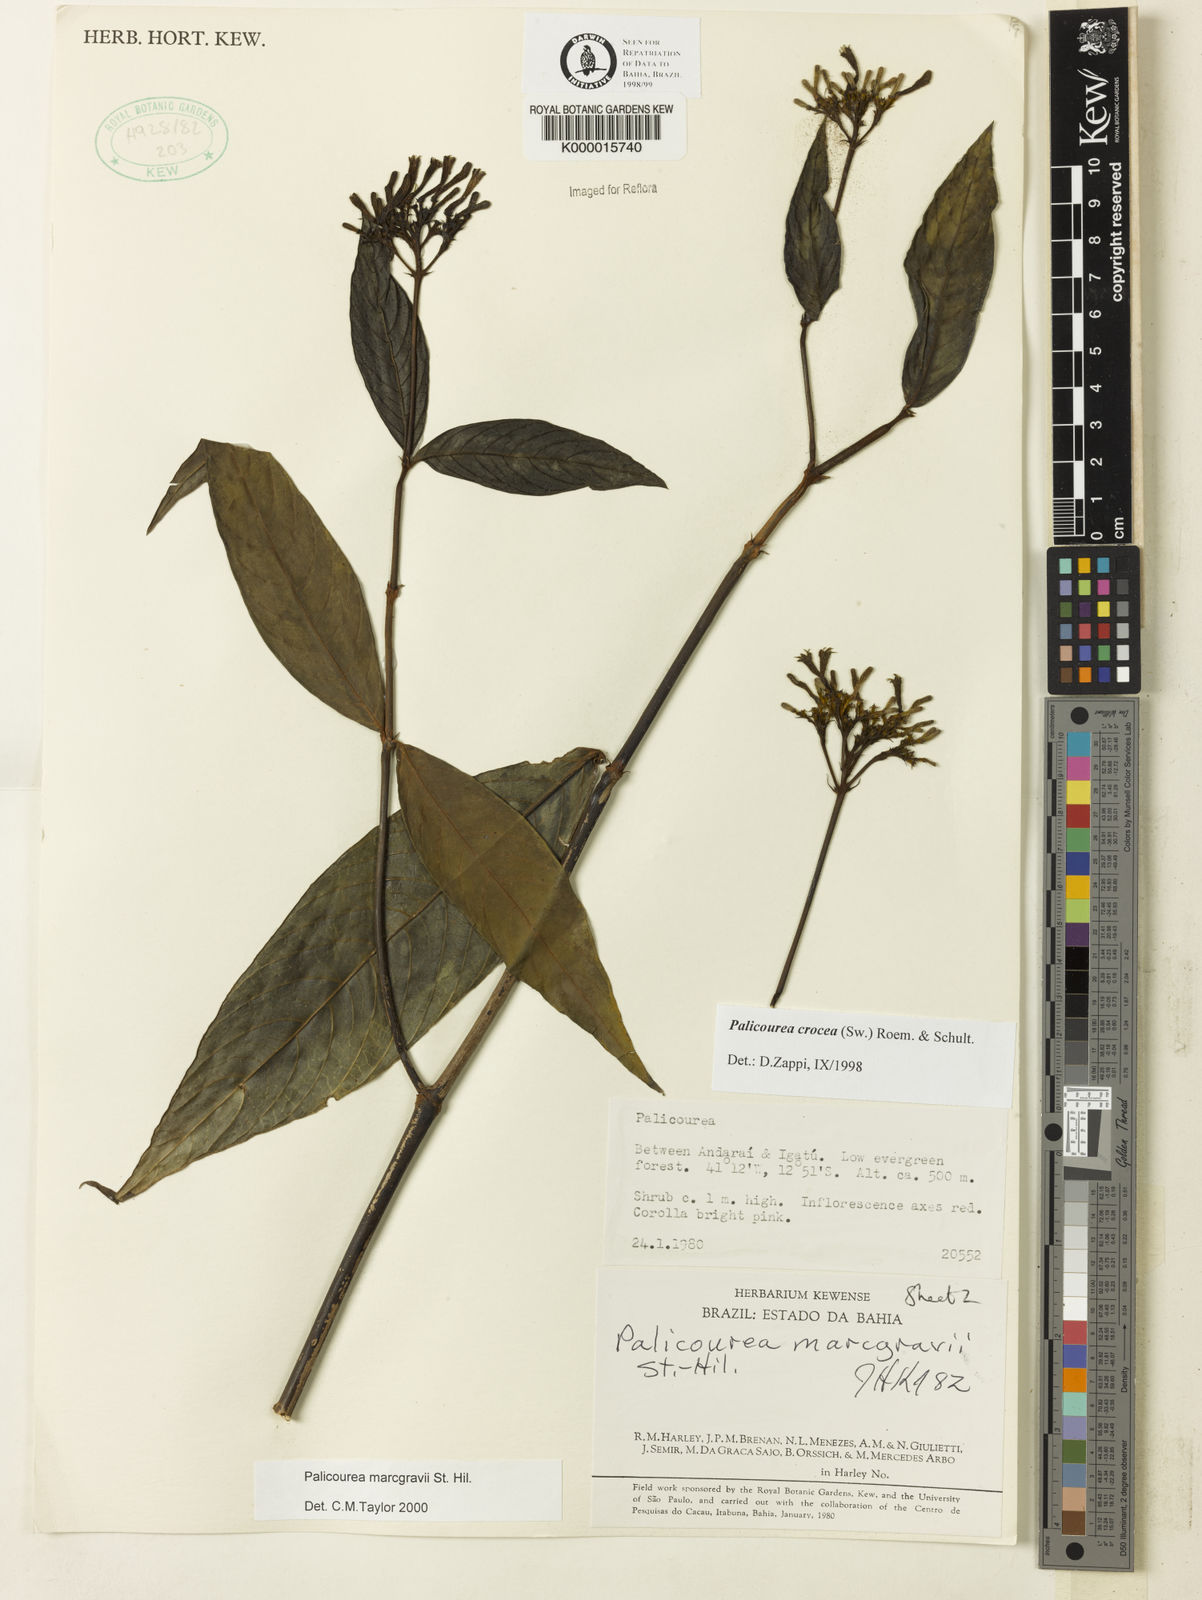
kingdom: Plantae
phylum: Tracheophyta
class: Magnoliopsida
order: Gentianales
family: Rubiaceae
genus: Palicourea
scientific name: Palicourea marcgravii
